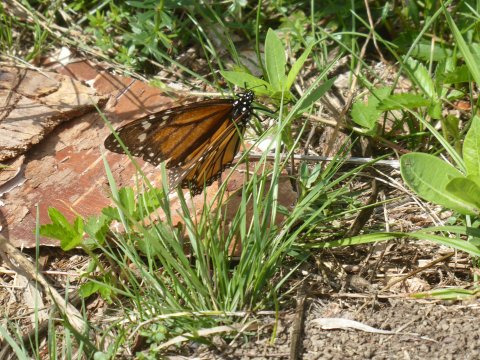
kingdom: Animalia
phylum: Arthropoda
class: Insecta
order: Lepidoptera
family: Nymphalidae
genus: Danaus
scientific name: Danaus plexippus
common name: Monarch
